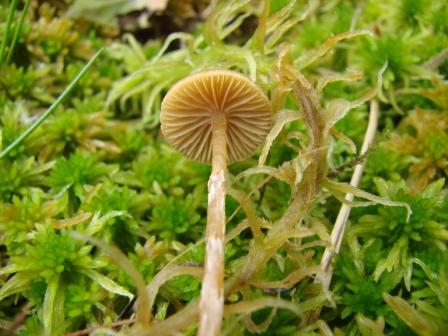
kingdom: Fungi
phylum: Basidiomycota
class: Agaricomycetes
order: Agaricales
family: Hymenogastraceae
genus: Galerina
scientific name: Galerina paludosa
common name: mose-hjelmhat
